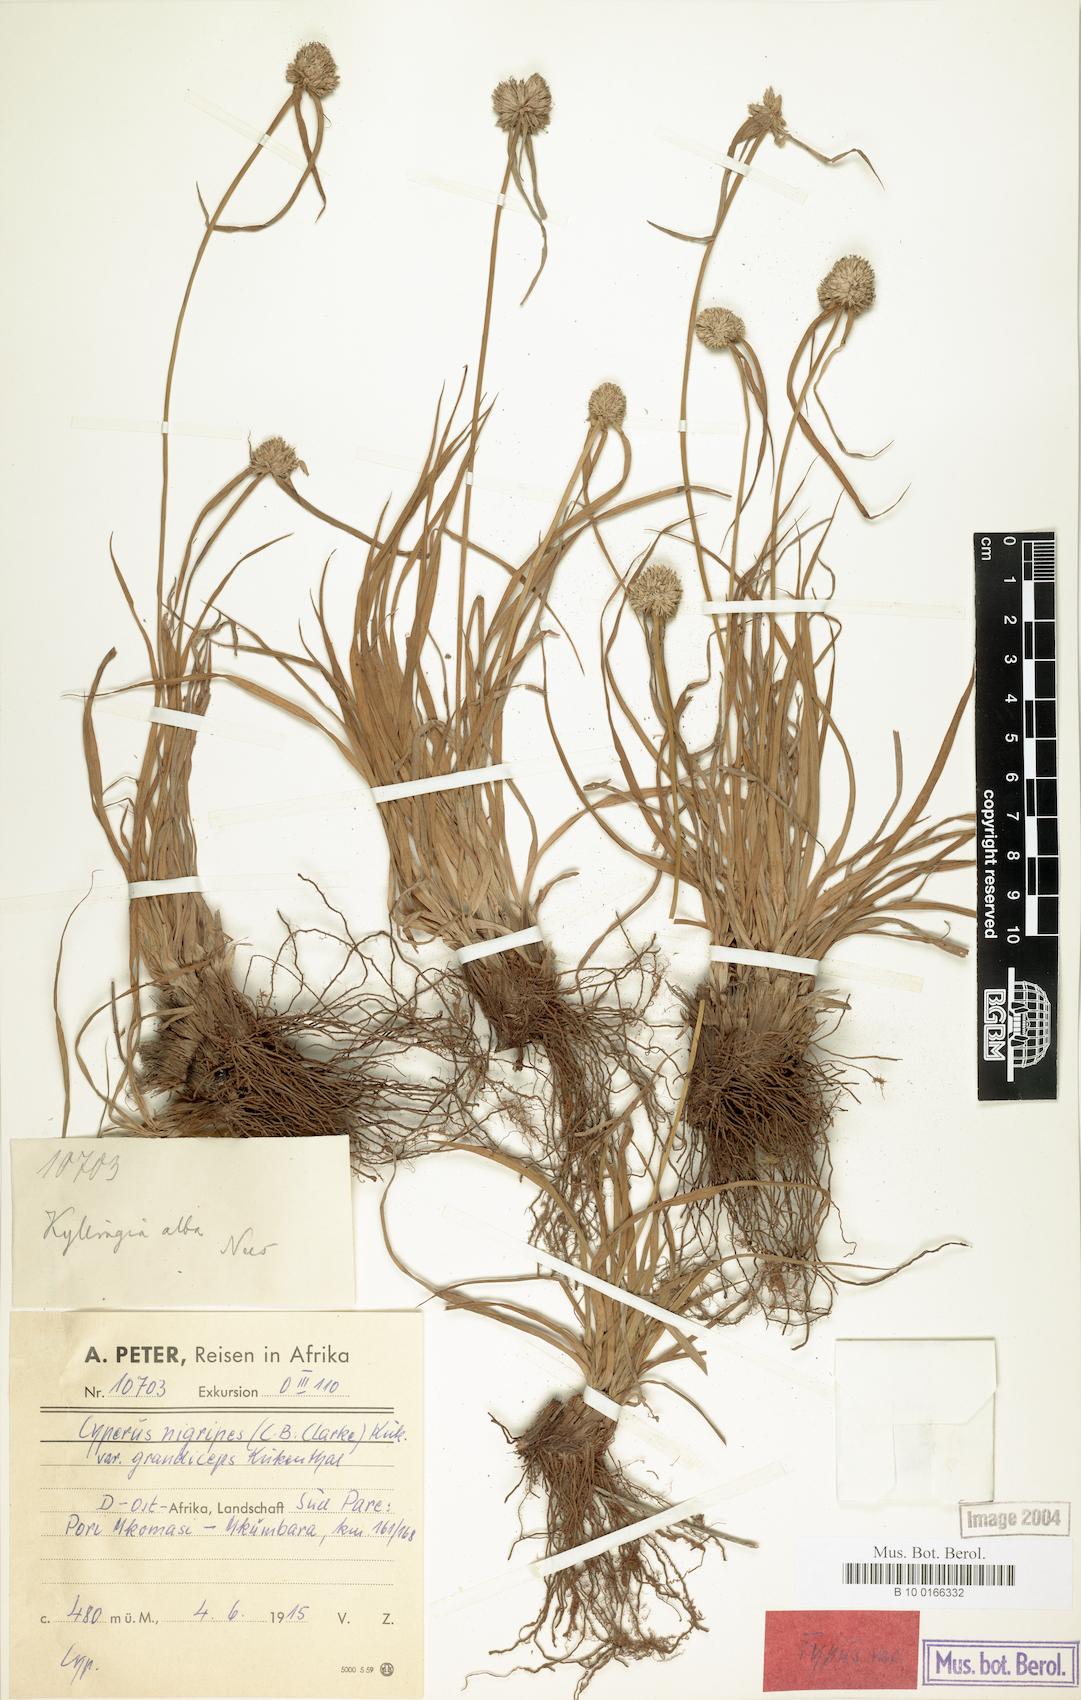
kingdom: Plantae
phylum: Tracheophyta
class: Liliopsida
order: Poales
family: Cyperaceae
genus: Cyperus
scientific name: Cyperus alatus
